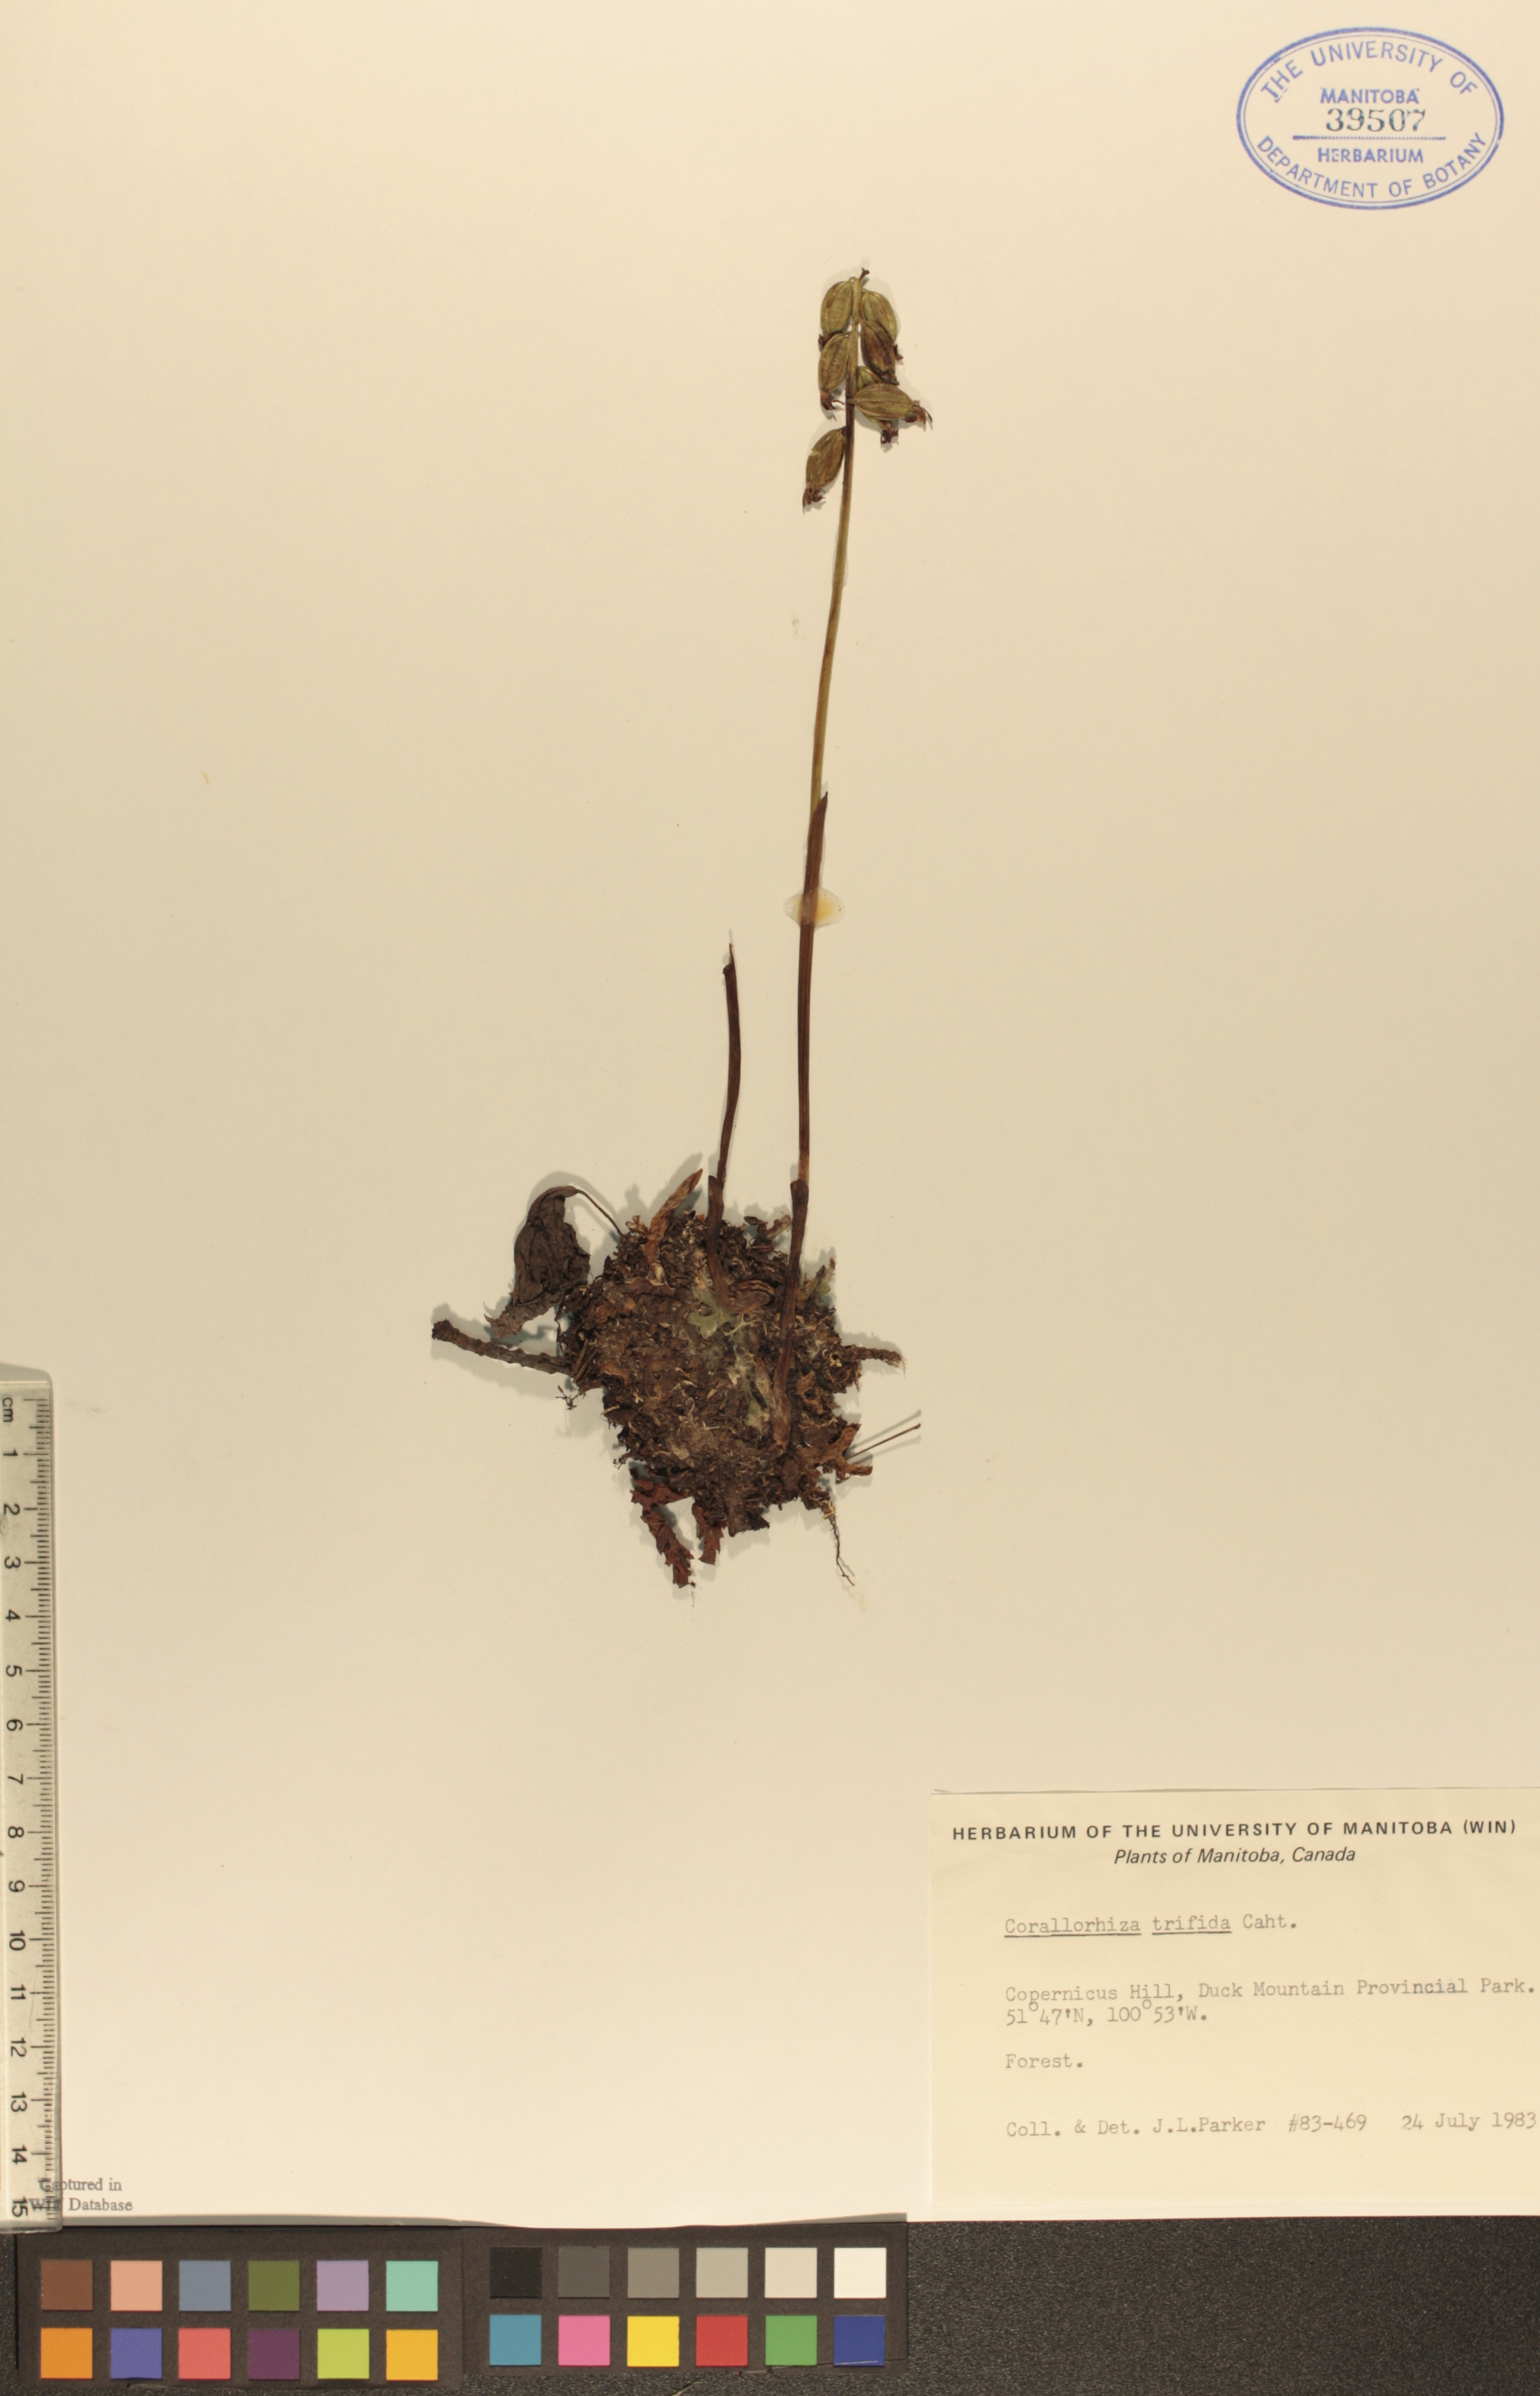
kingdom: Plantae
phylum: Tracheophyta
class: Liliopsida
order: Asparagales
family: Orchidaceae
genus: Corallorhiza
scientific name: Corallorhiza trifida
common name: Yellow coralroot
